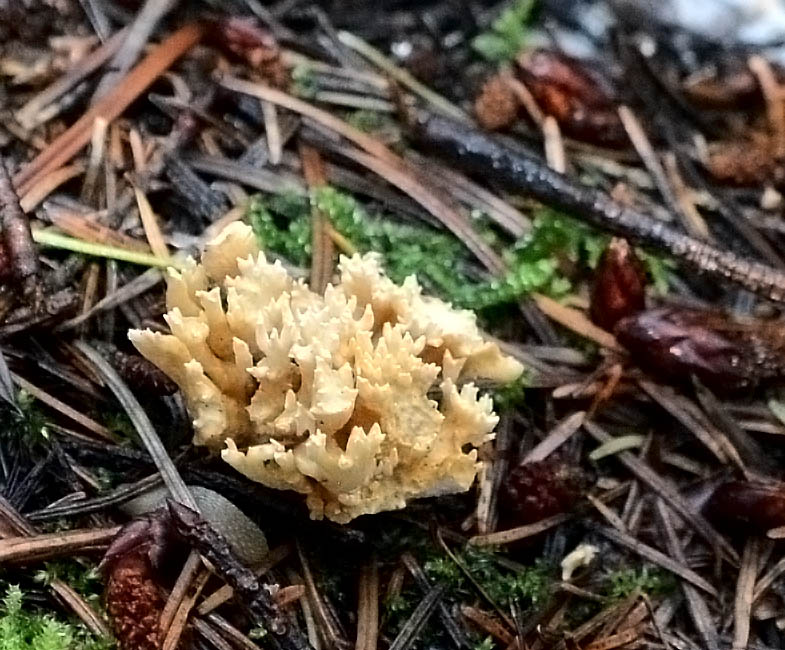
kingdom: Fungi
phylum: Basidiomycota
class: Agaricomycetes
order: Gomphales
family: Gomphaceae
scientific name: Gomphaceae
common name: køllekantarelfamilien
